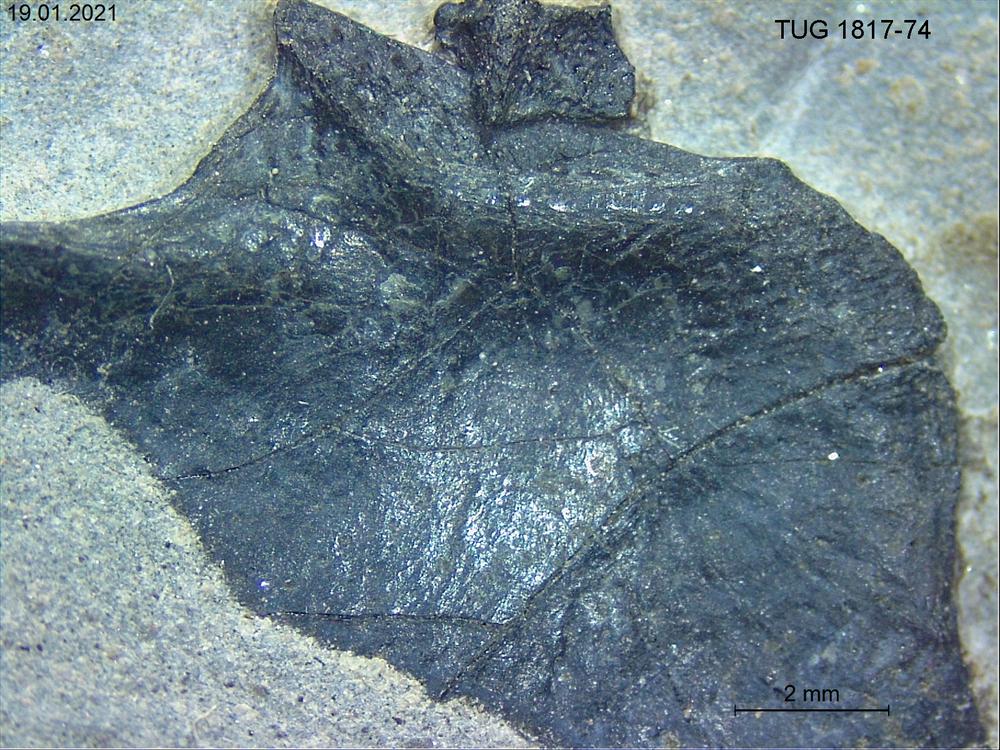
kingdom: Animalia
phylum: Chordata
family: Coccosteidae
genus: Millerosteus
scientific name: Millerosteus minor
